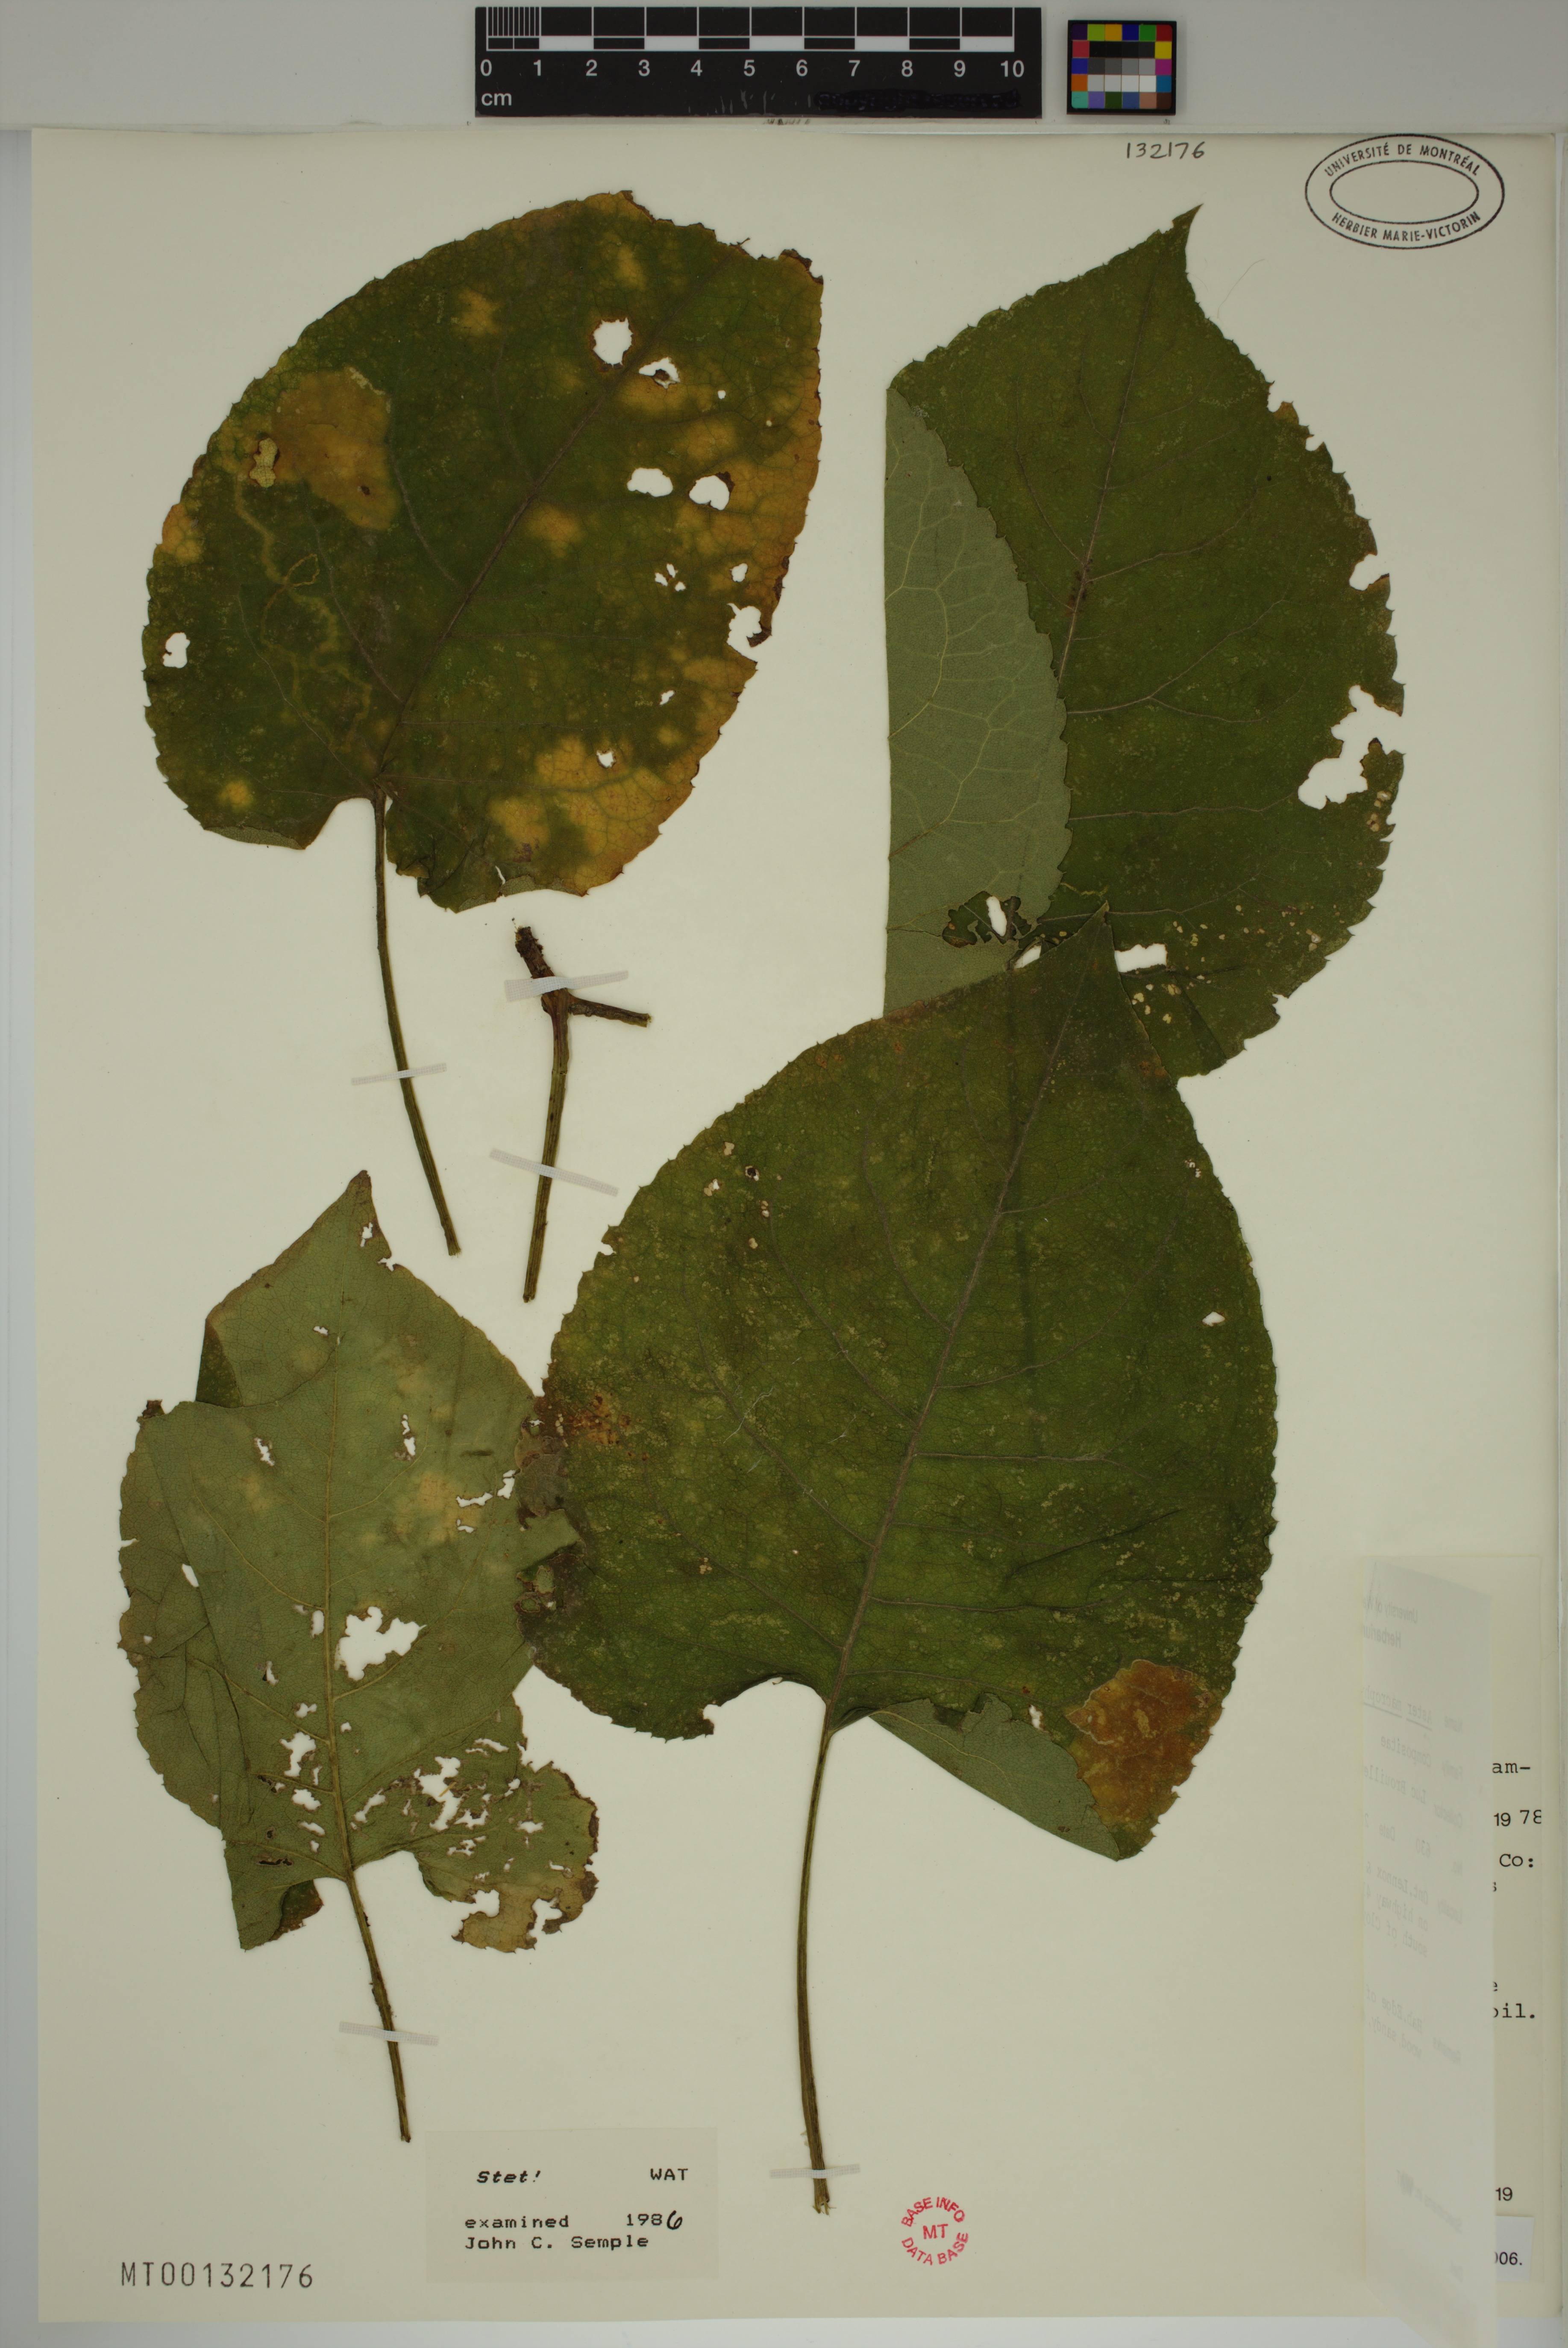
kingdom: Plantae
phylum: Tracheophyta
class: Magnoliopsida
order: Asterales
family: Asteraceae
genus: Eurybia
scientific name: Eurybia macrophylla
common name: Big-leaved aster
